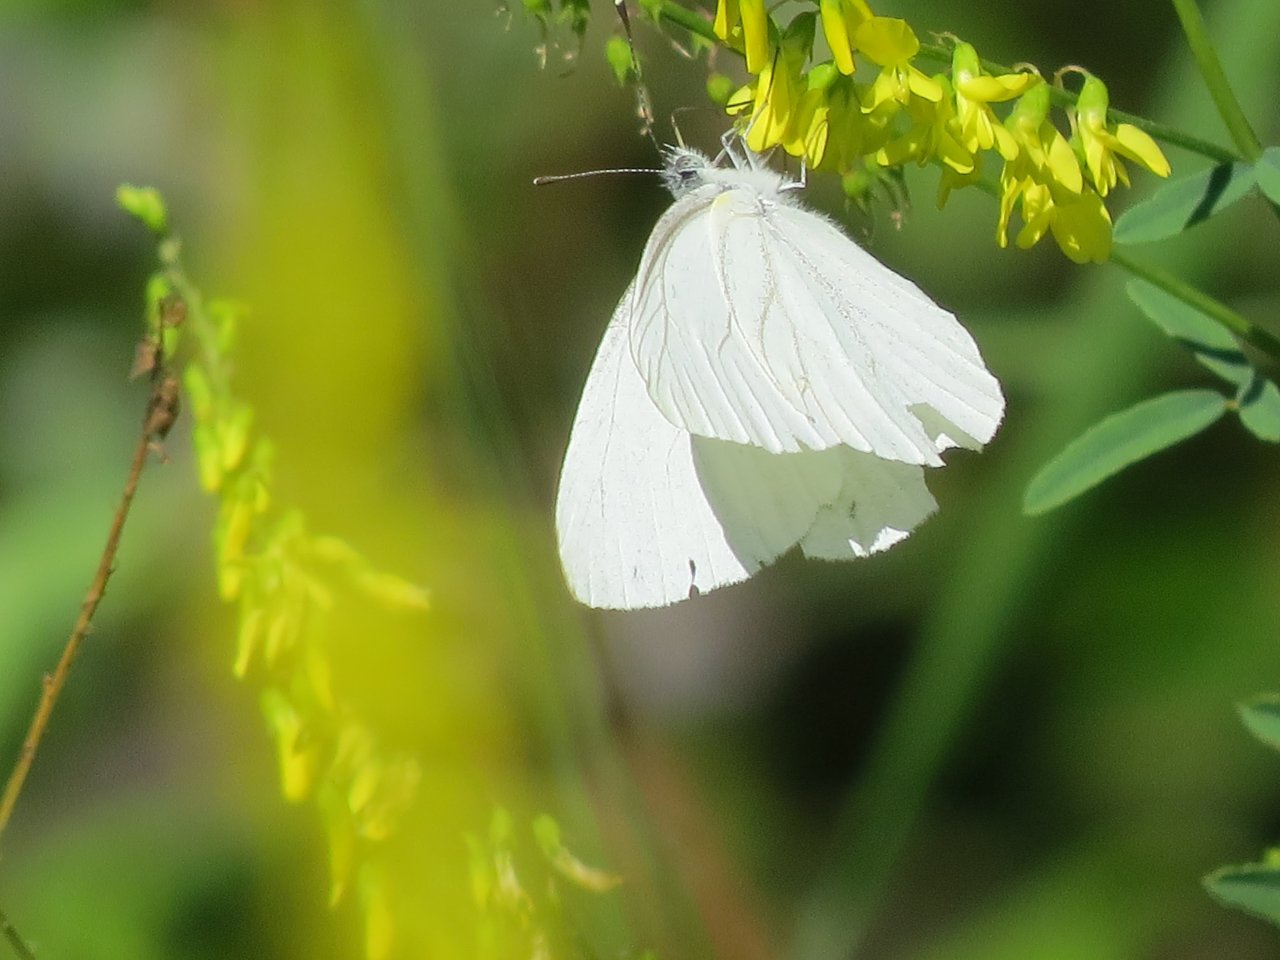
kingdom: Animalia
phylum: Arthropoda
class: Insecta
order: Lepidoptera
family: Pieridae
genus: Pieris
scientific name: Pieris oleracea
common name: Mustard White
